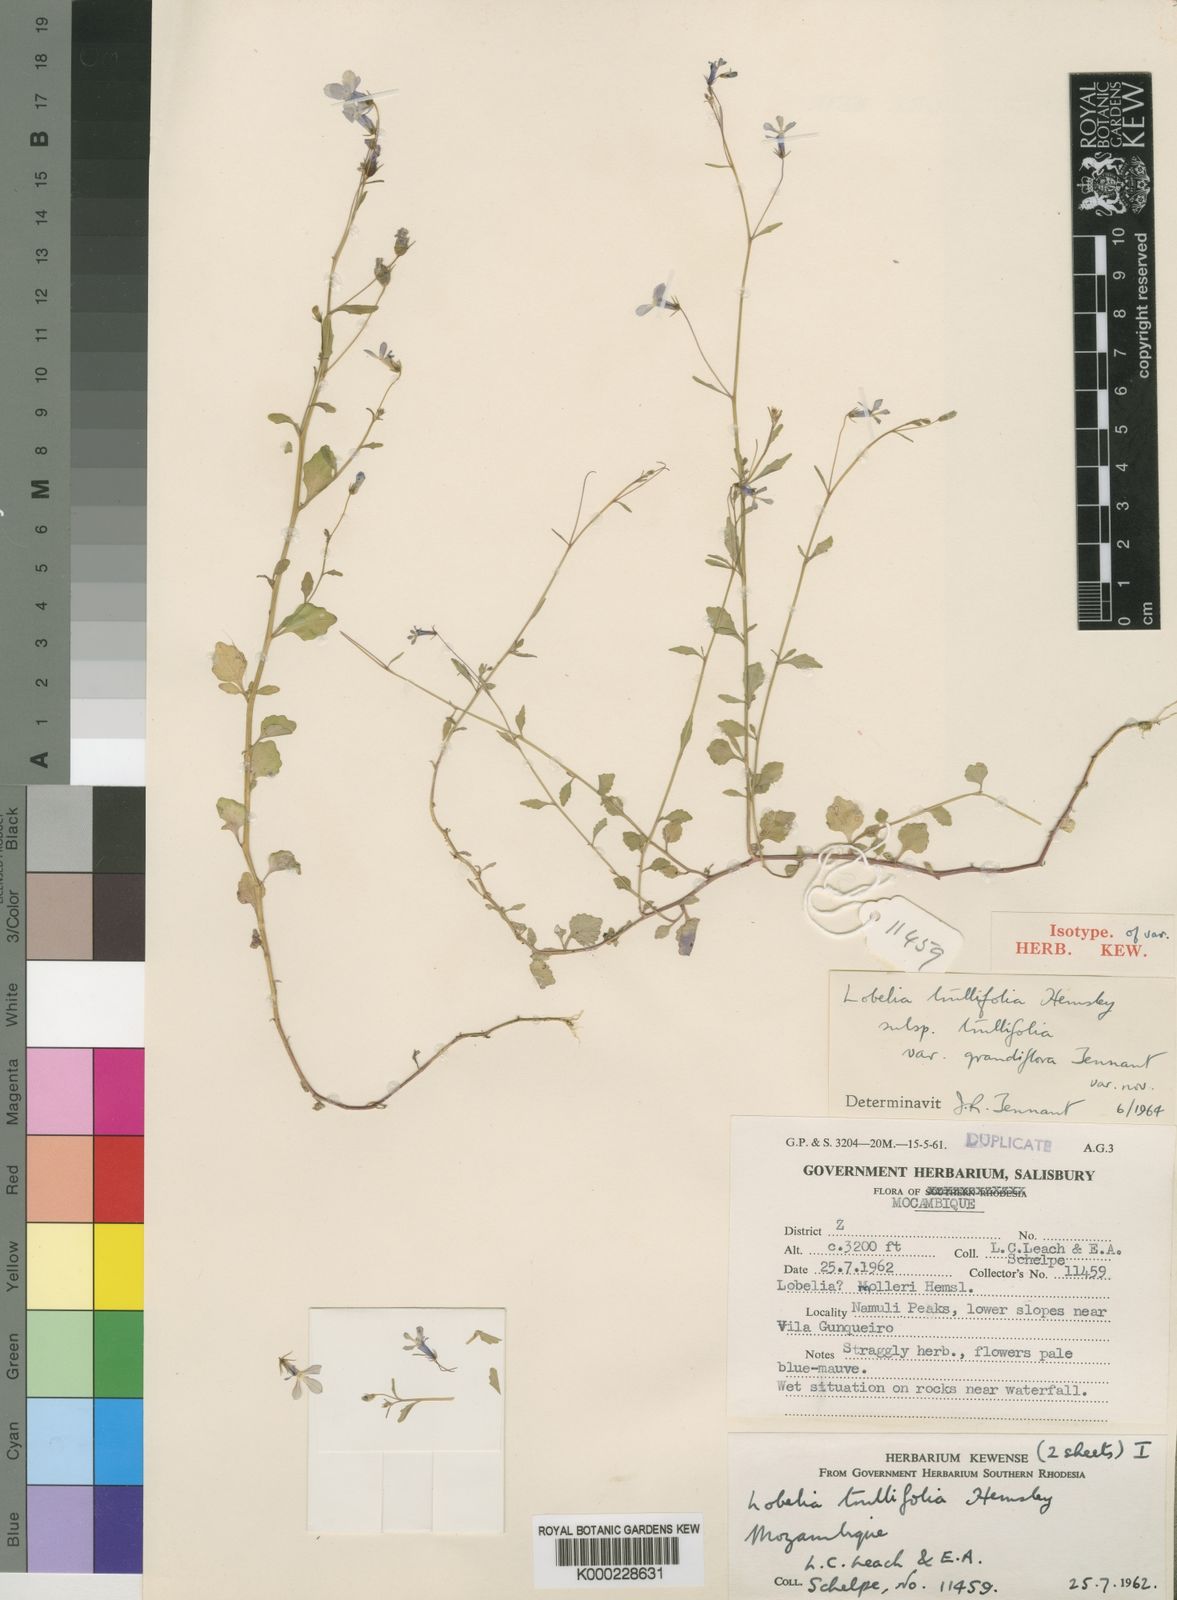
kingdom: Plantae
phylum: Tracheophyta
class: Magnoliopsida
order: Asterales
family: Campanulaceae
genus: Lobelia
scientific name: Lobelia trullifolia
